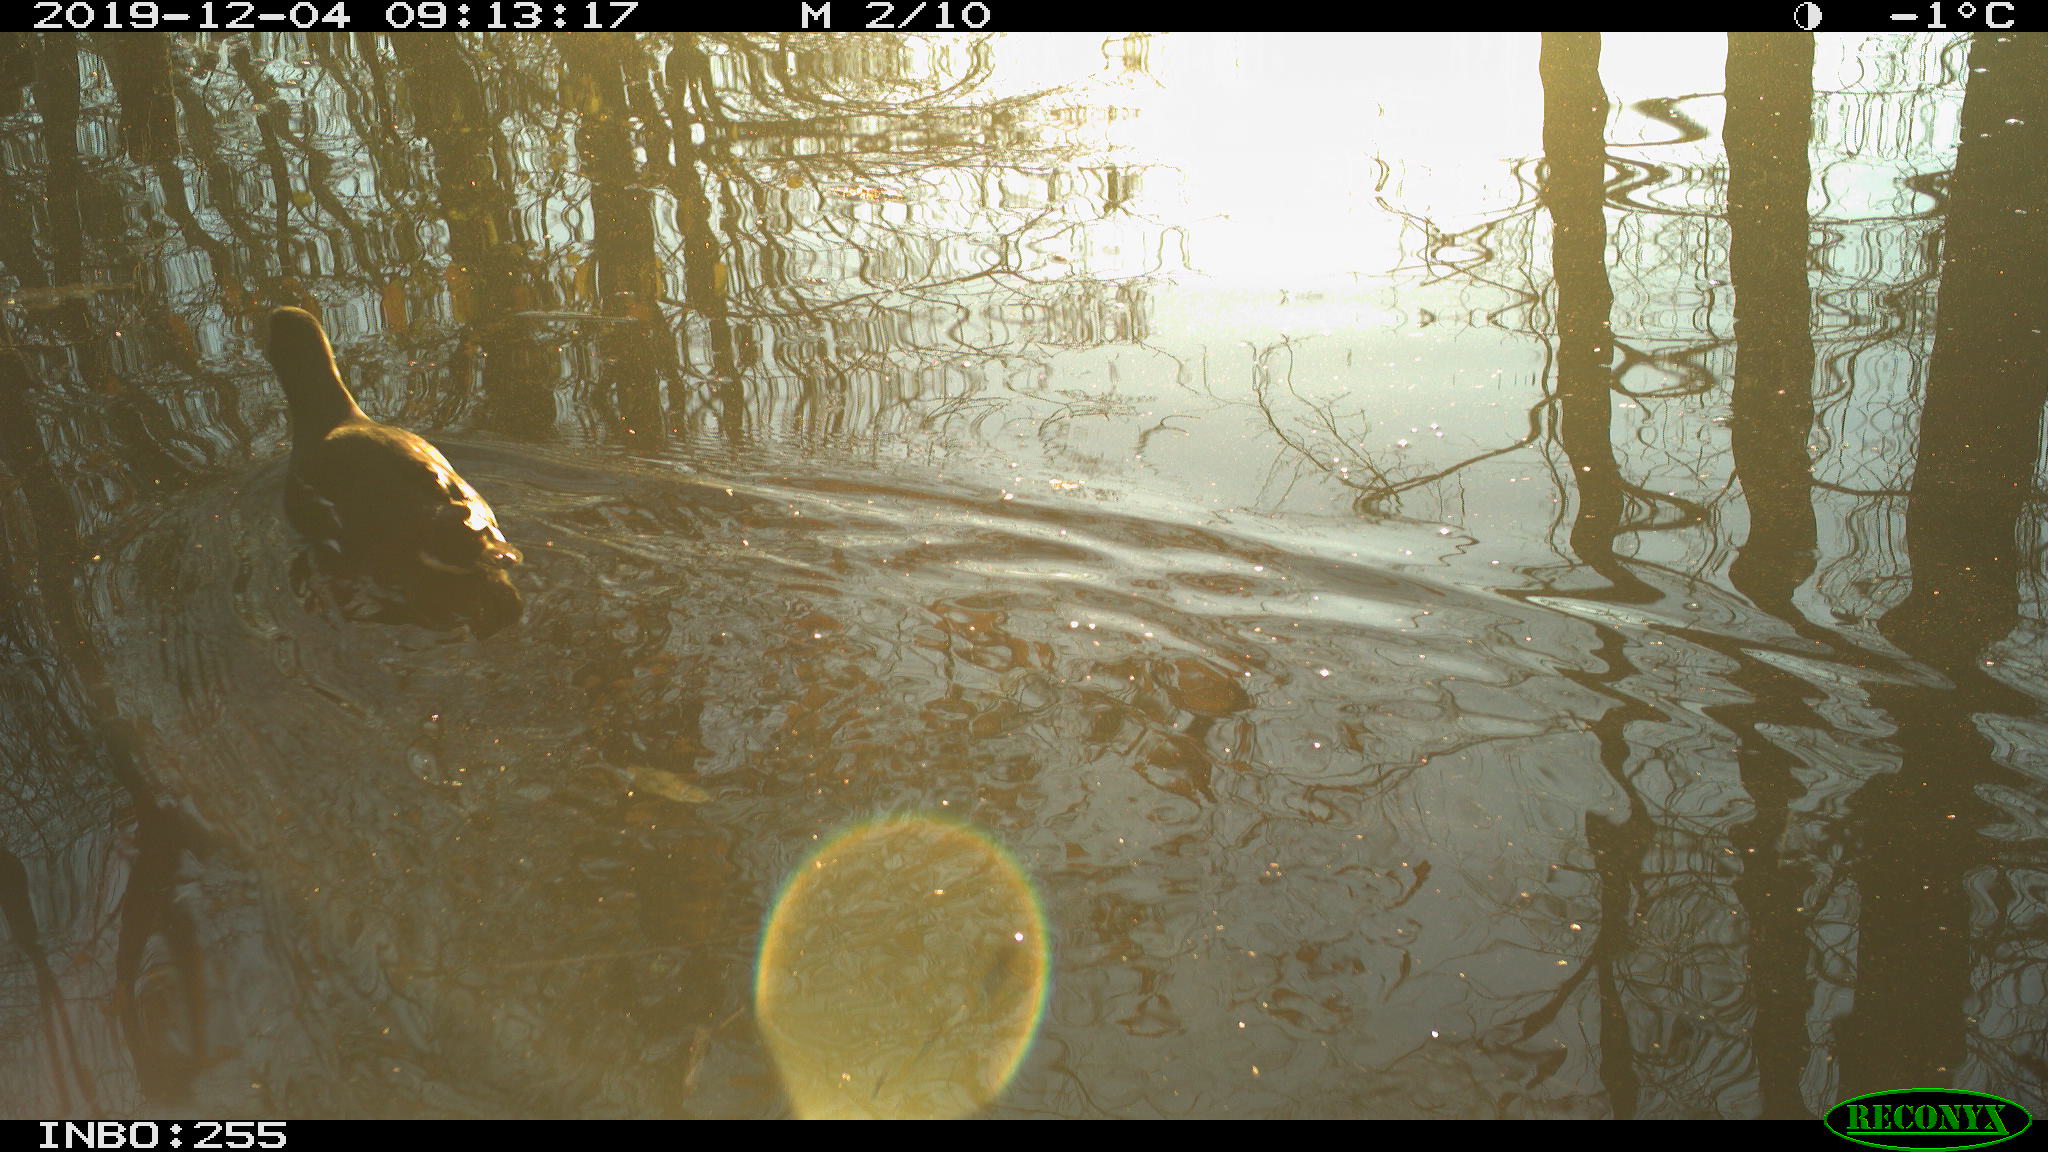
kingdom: Animalia
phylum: Chordata
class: Aves
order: Gruiformes
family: Rallidae
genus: Gallinula
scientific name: Gallinula chloropus
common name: Common moorhen
